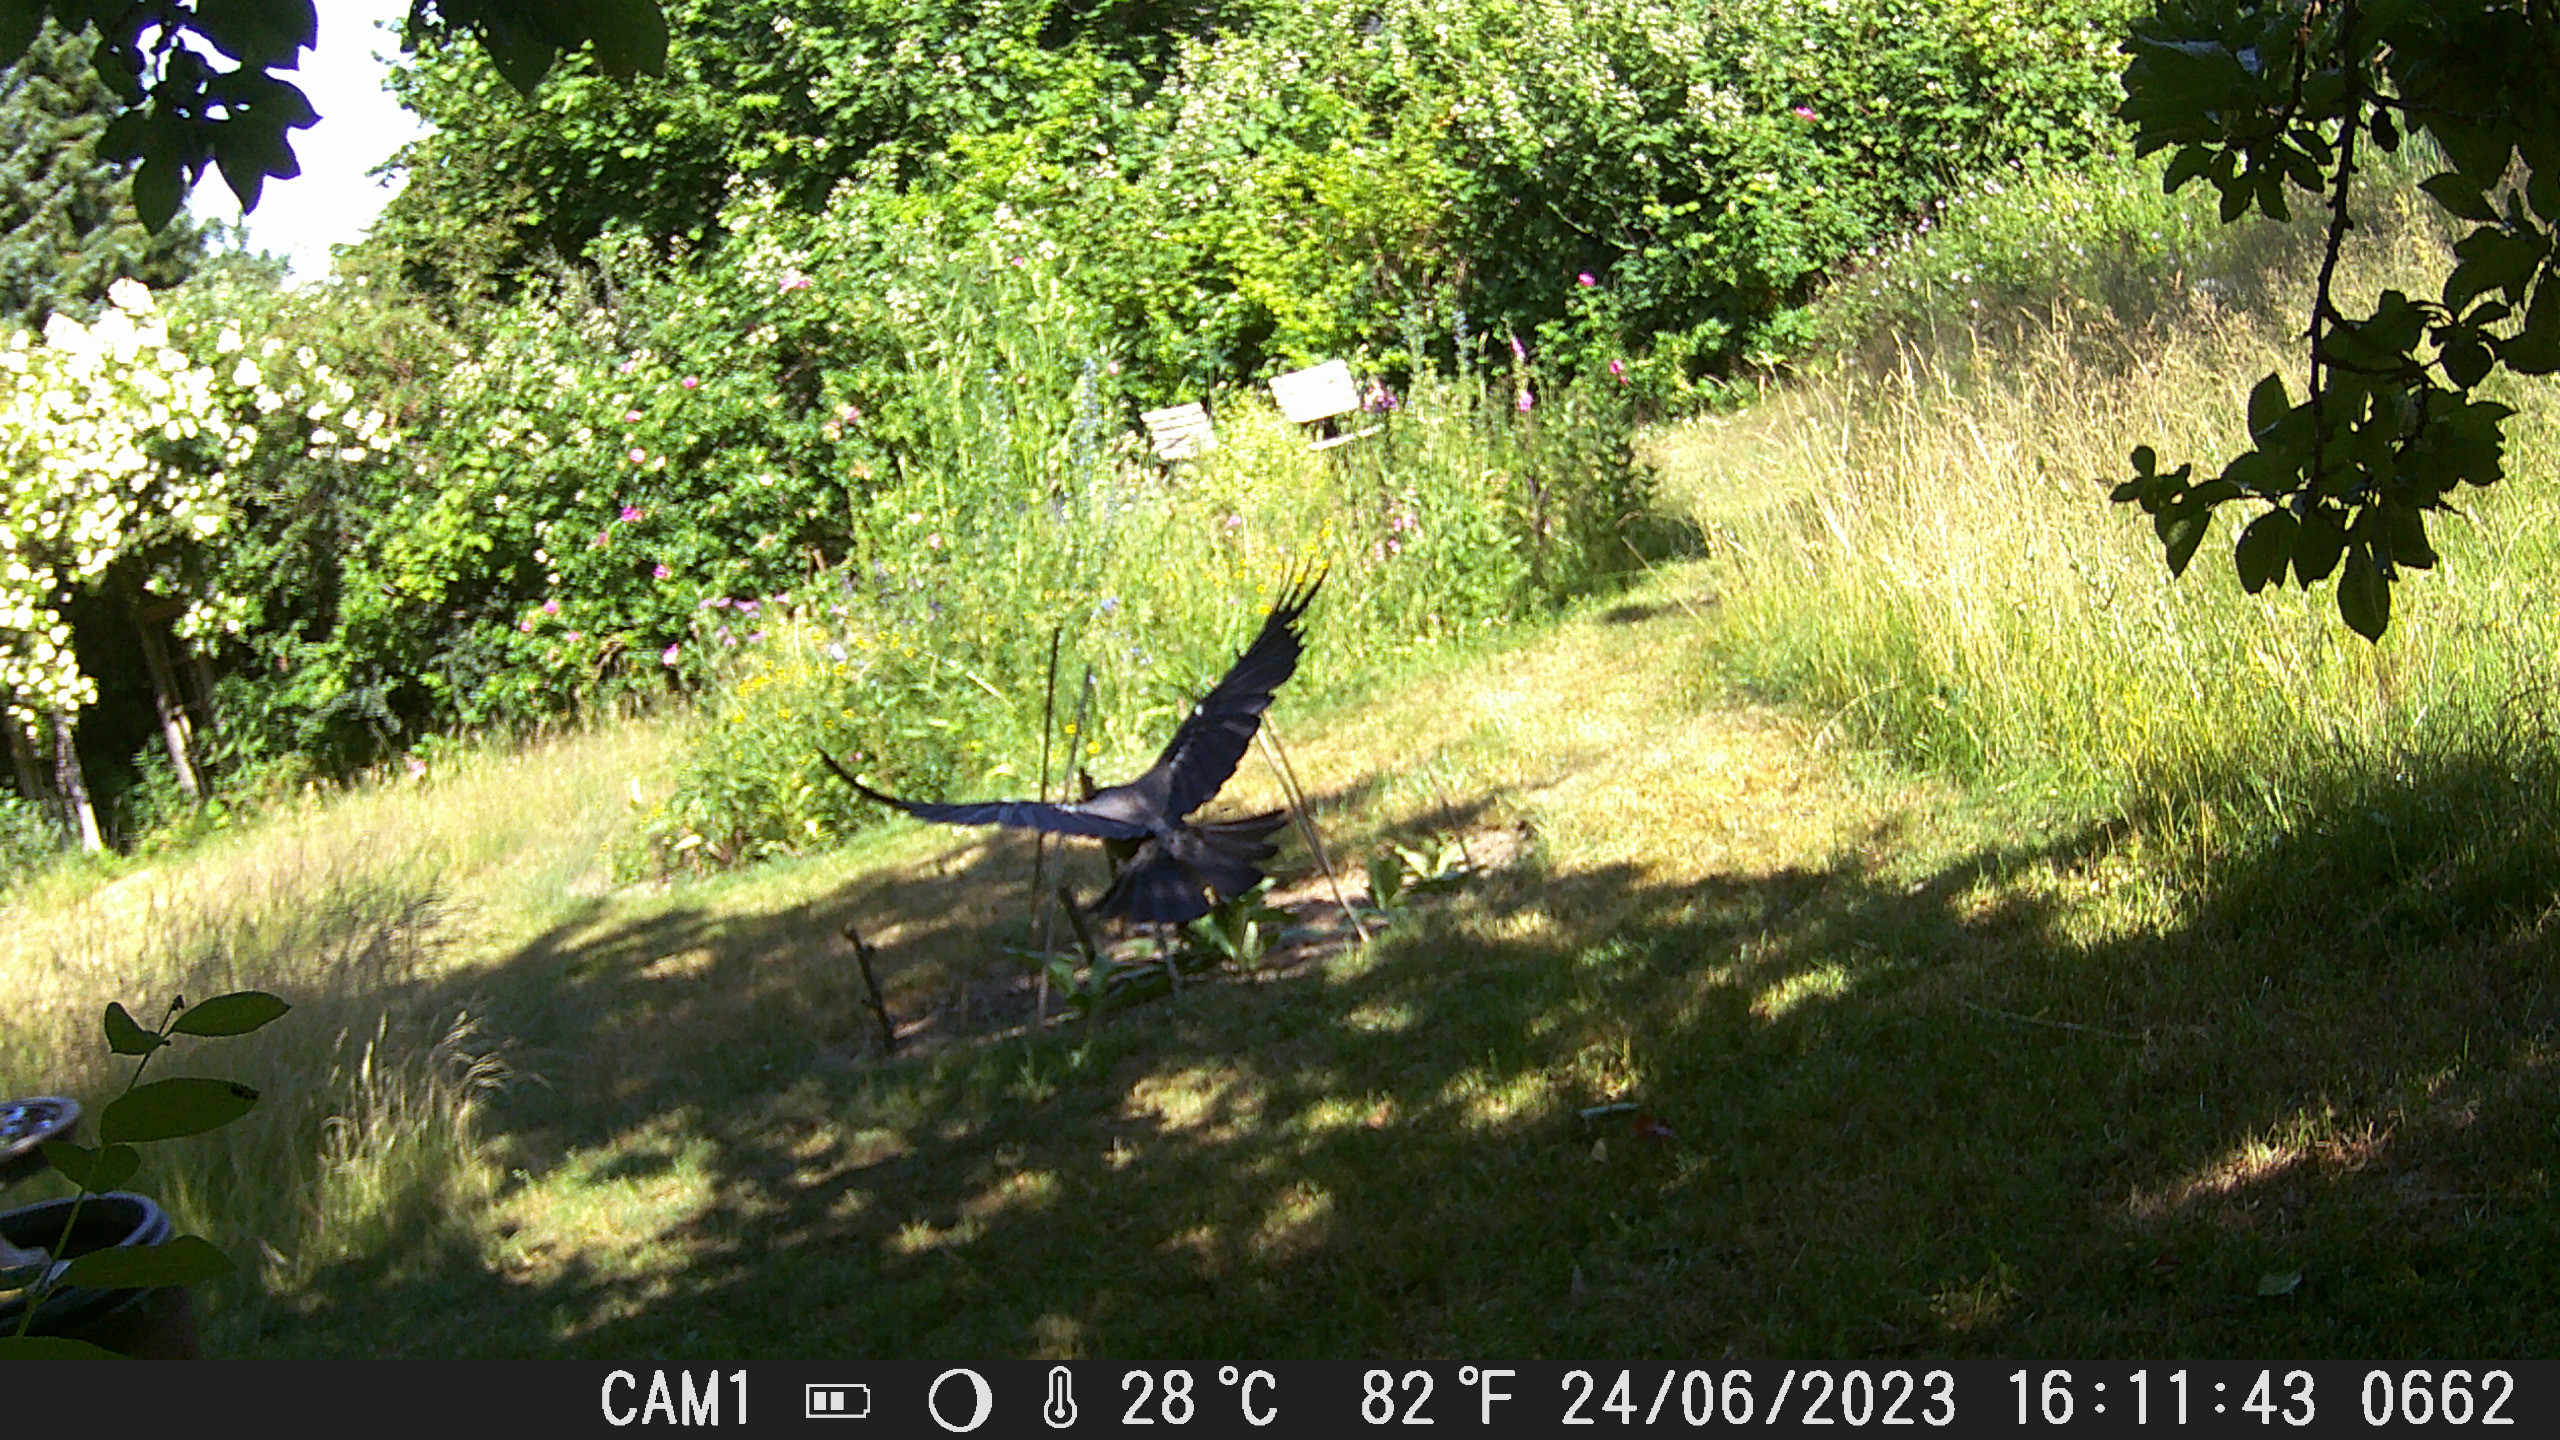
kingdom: Animalia
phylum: Chordata
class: Aves
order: Passeriformes
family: Corvidae
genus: Corvus
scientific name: Corvus cornix
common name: Gråkrage
